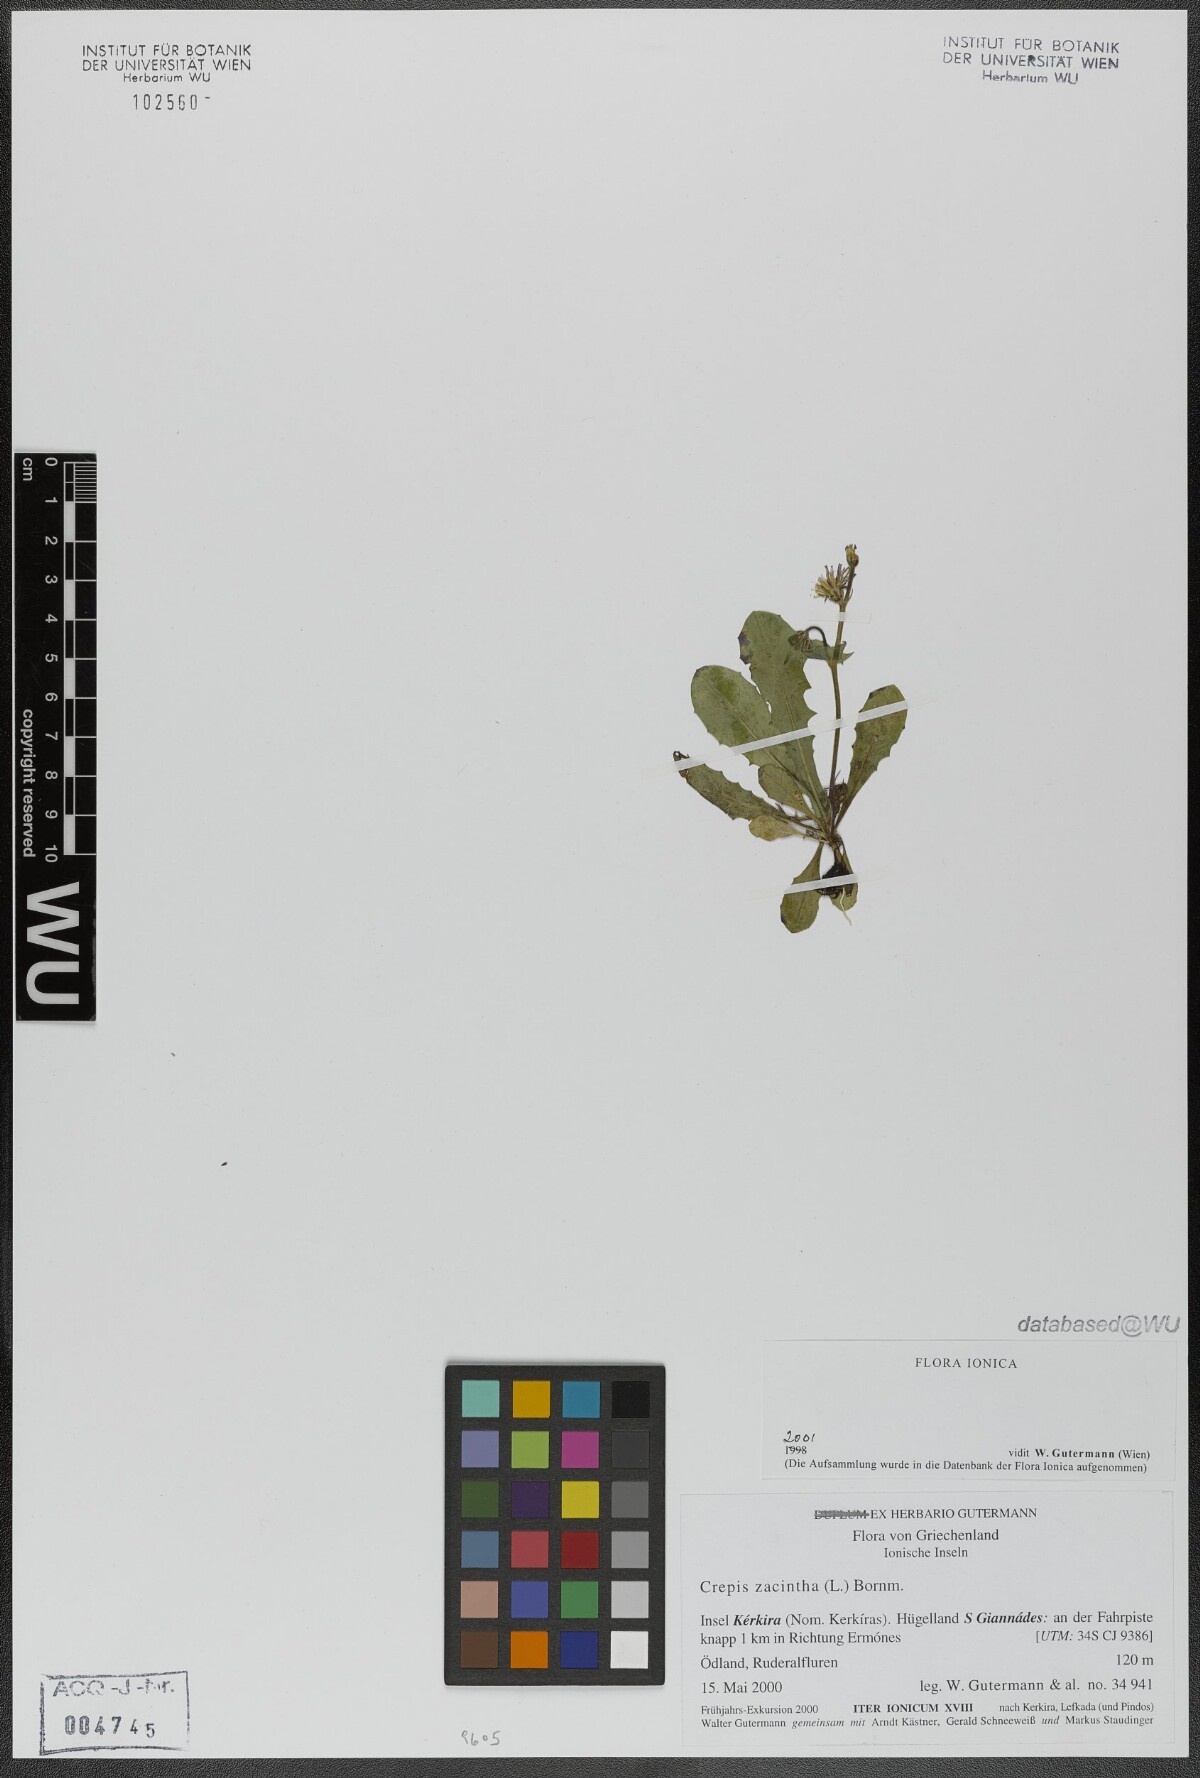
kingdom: Plantae
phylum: Tracheophyta
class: Magnoliopsida
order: Asterales
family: Asteraceae
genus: Crepis
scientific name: Crepis zacintha
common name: Striped hawksbeard
